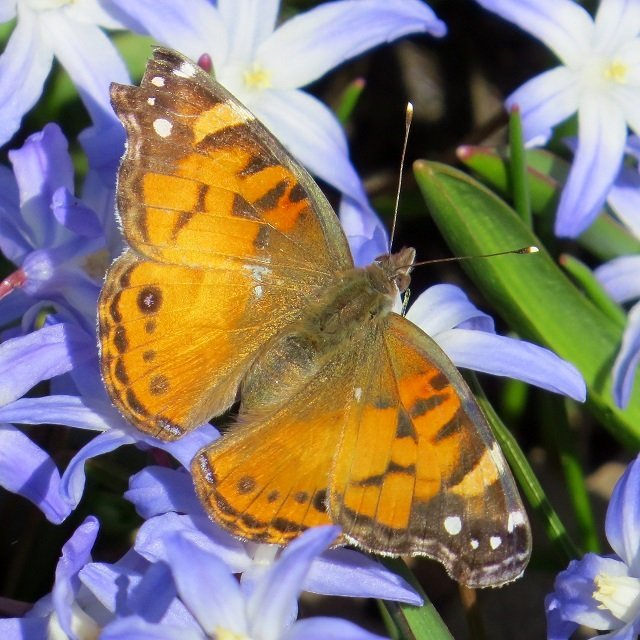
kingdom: Animalia
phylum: Arthropoda
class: Insecta
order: Lepidoptera
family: Nymphalidae
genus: Vanessa
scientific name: Vanessa virginiensis
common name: American Lady
